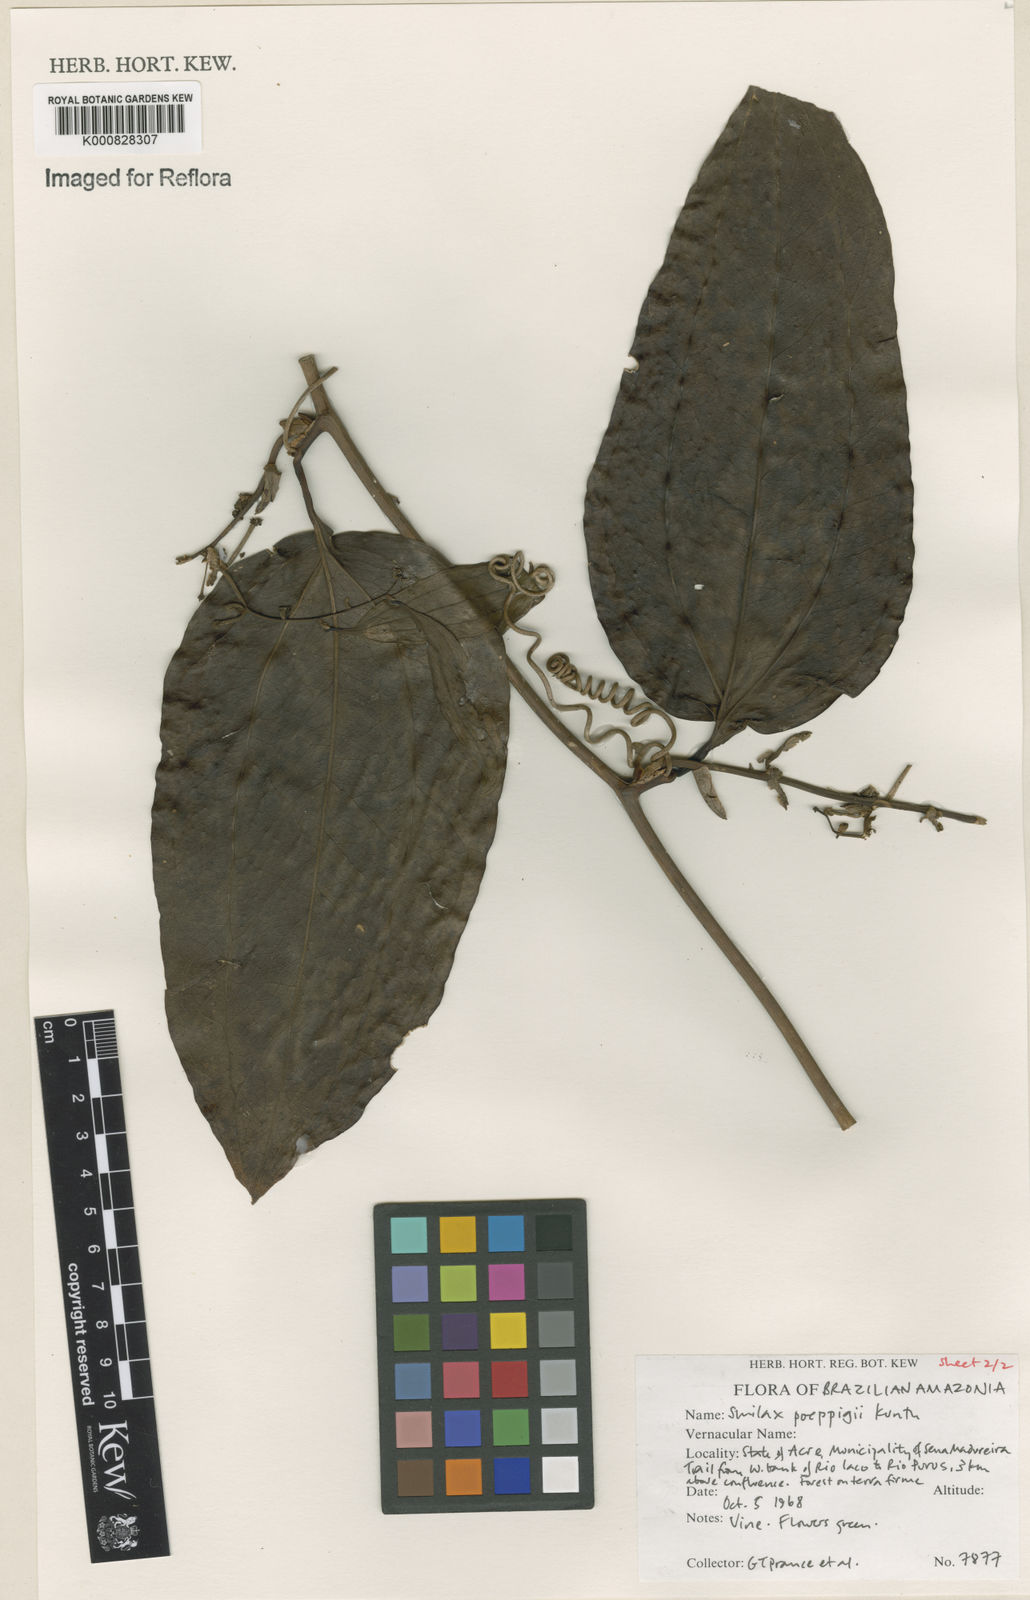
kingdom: Plantae
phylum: Tracheophyta
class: Liliopsida
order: Liliales
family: Smilacaceae
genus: Smilax
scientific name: Smilax purhampuy
